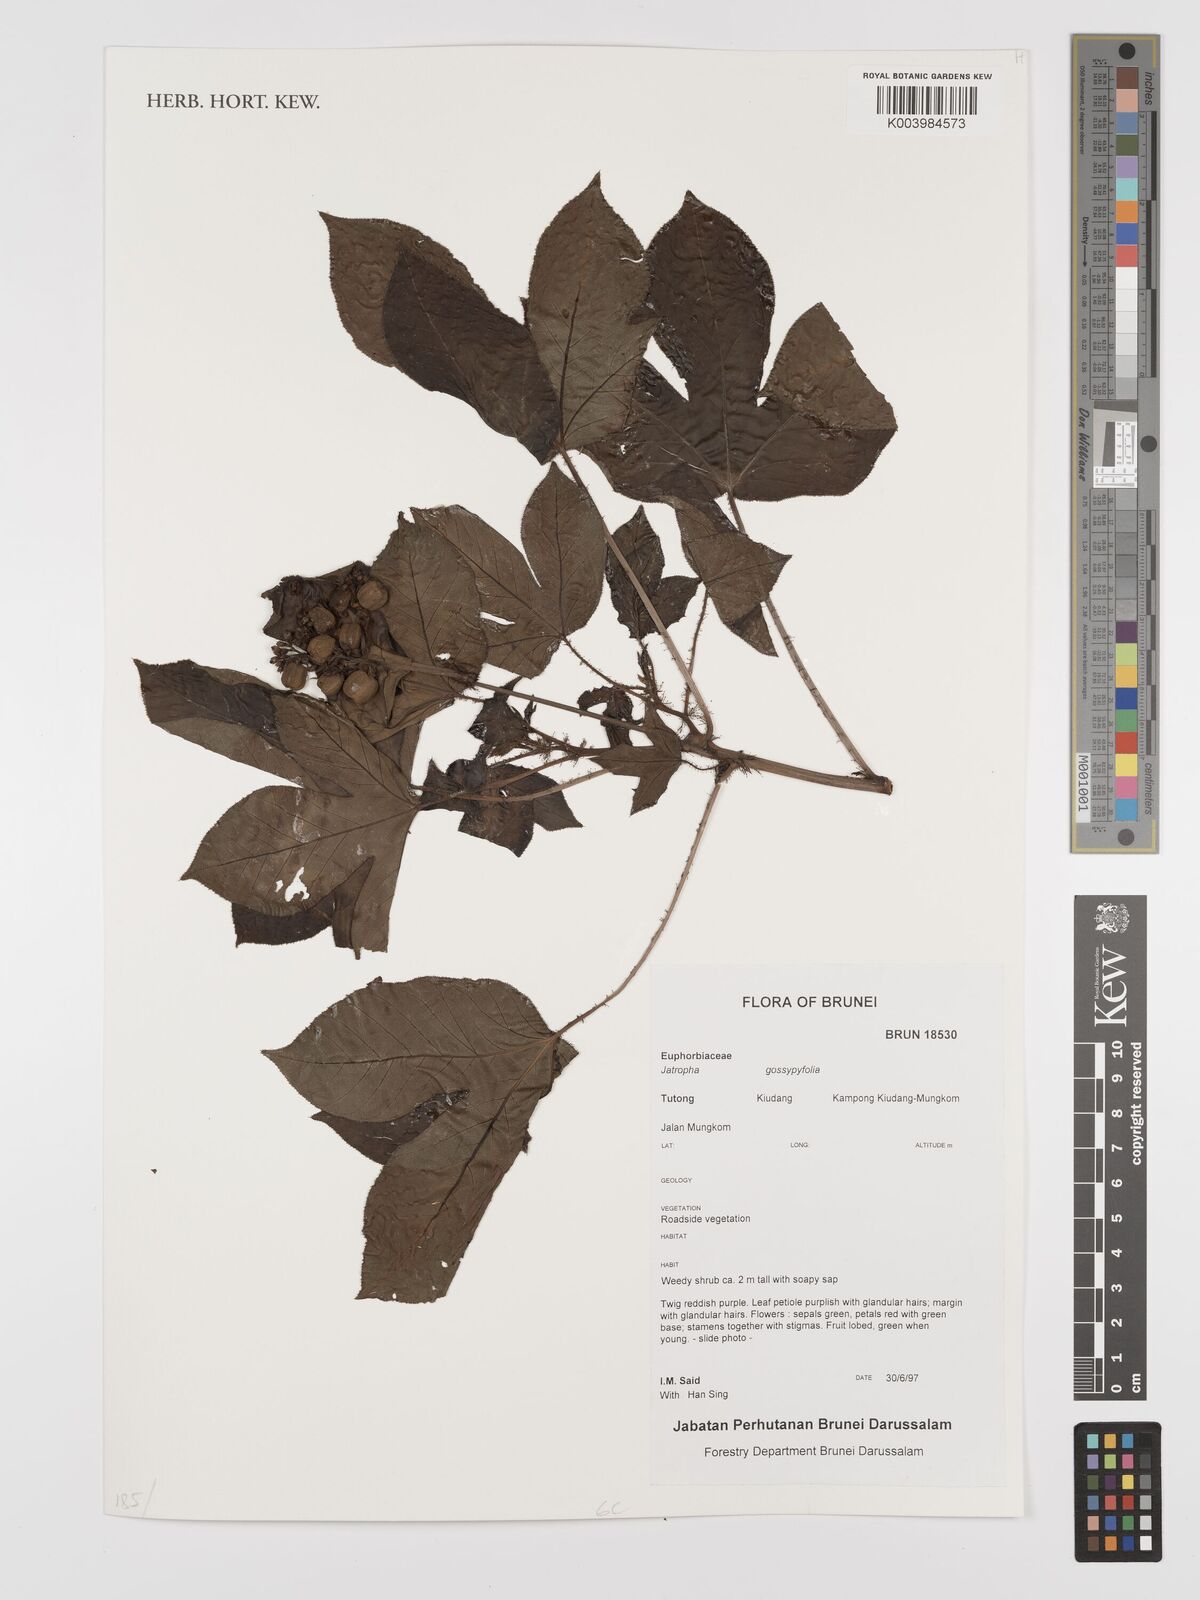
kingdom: Plantae
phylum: Tracheophyta
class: Magnoliopsida
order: Malpighiales
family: Euphorbiaceae
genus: Jatropha
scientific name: Jatropha gossypiifolia
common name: Bellyache bush
